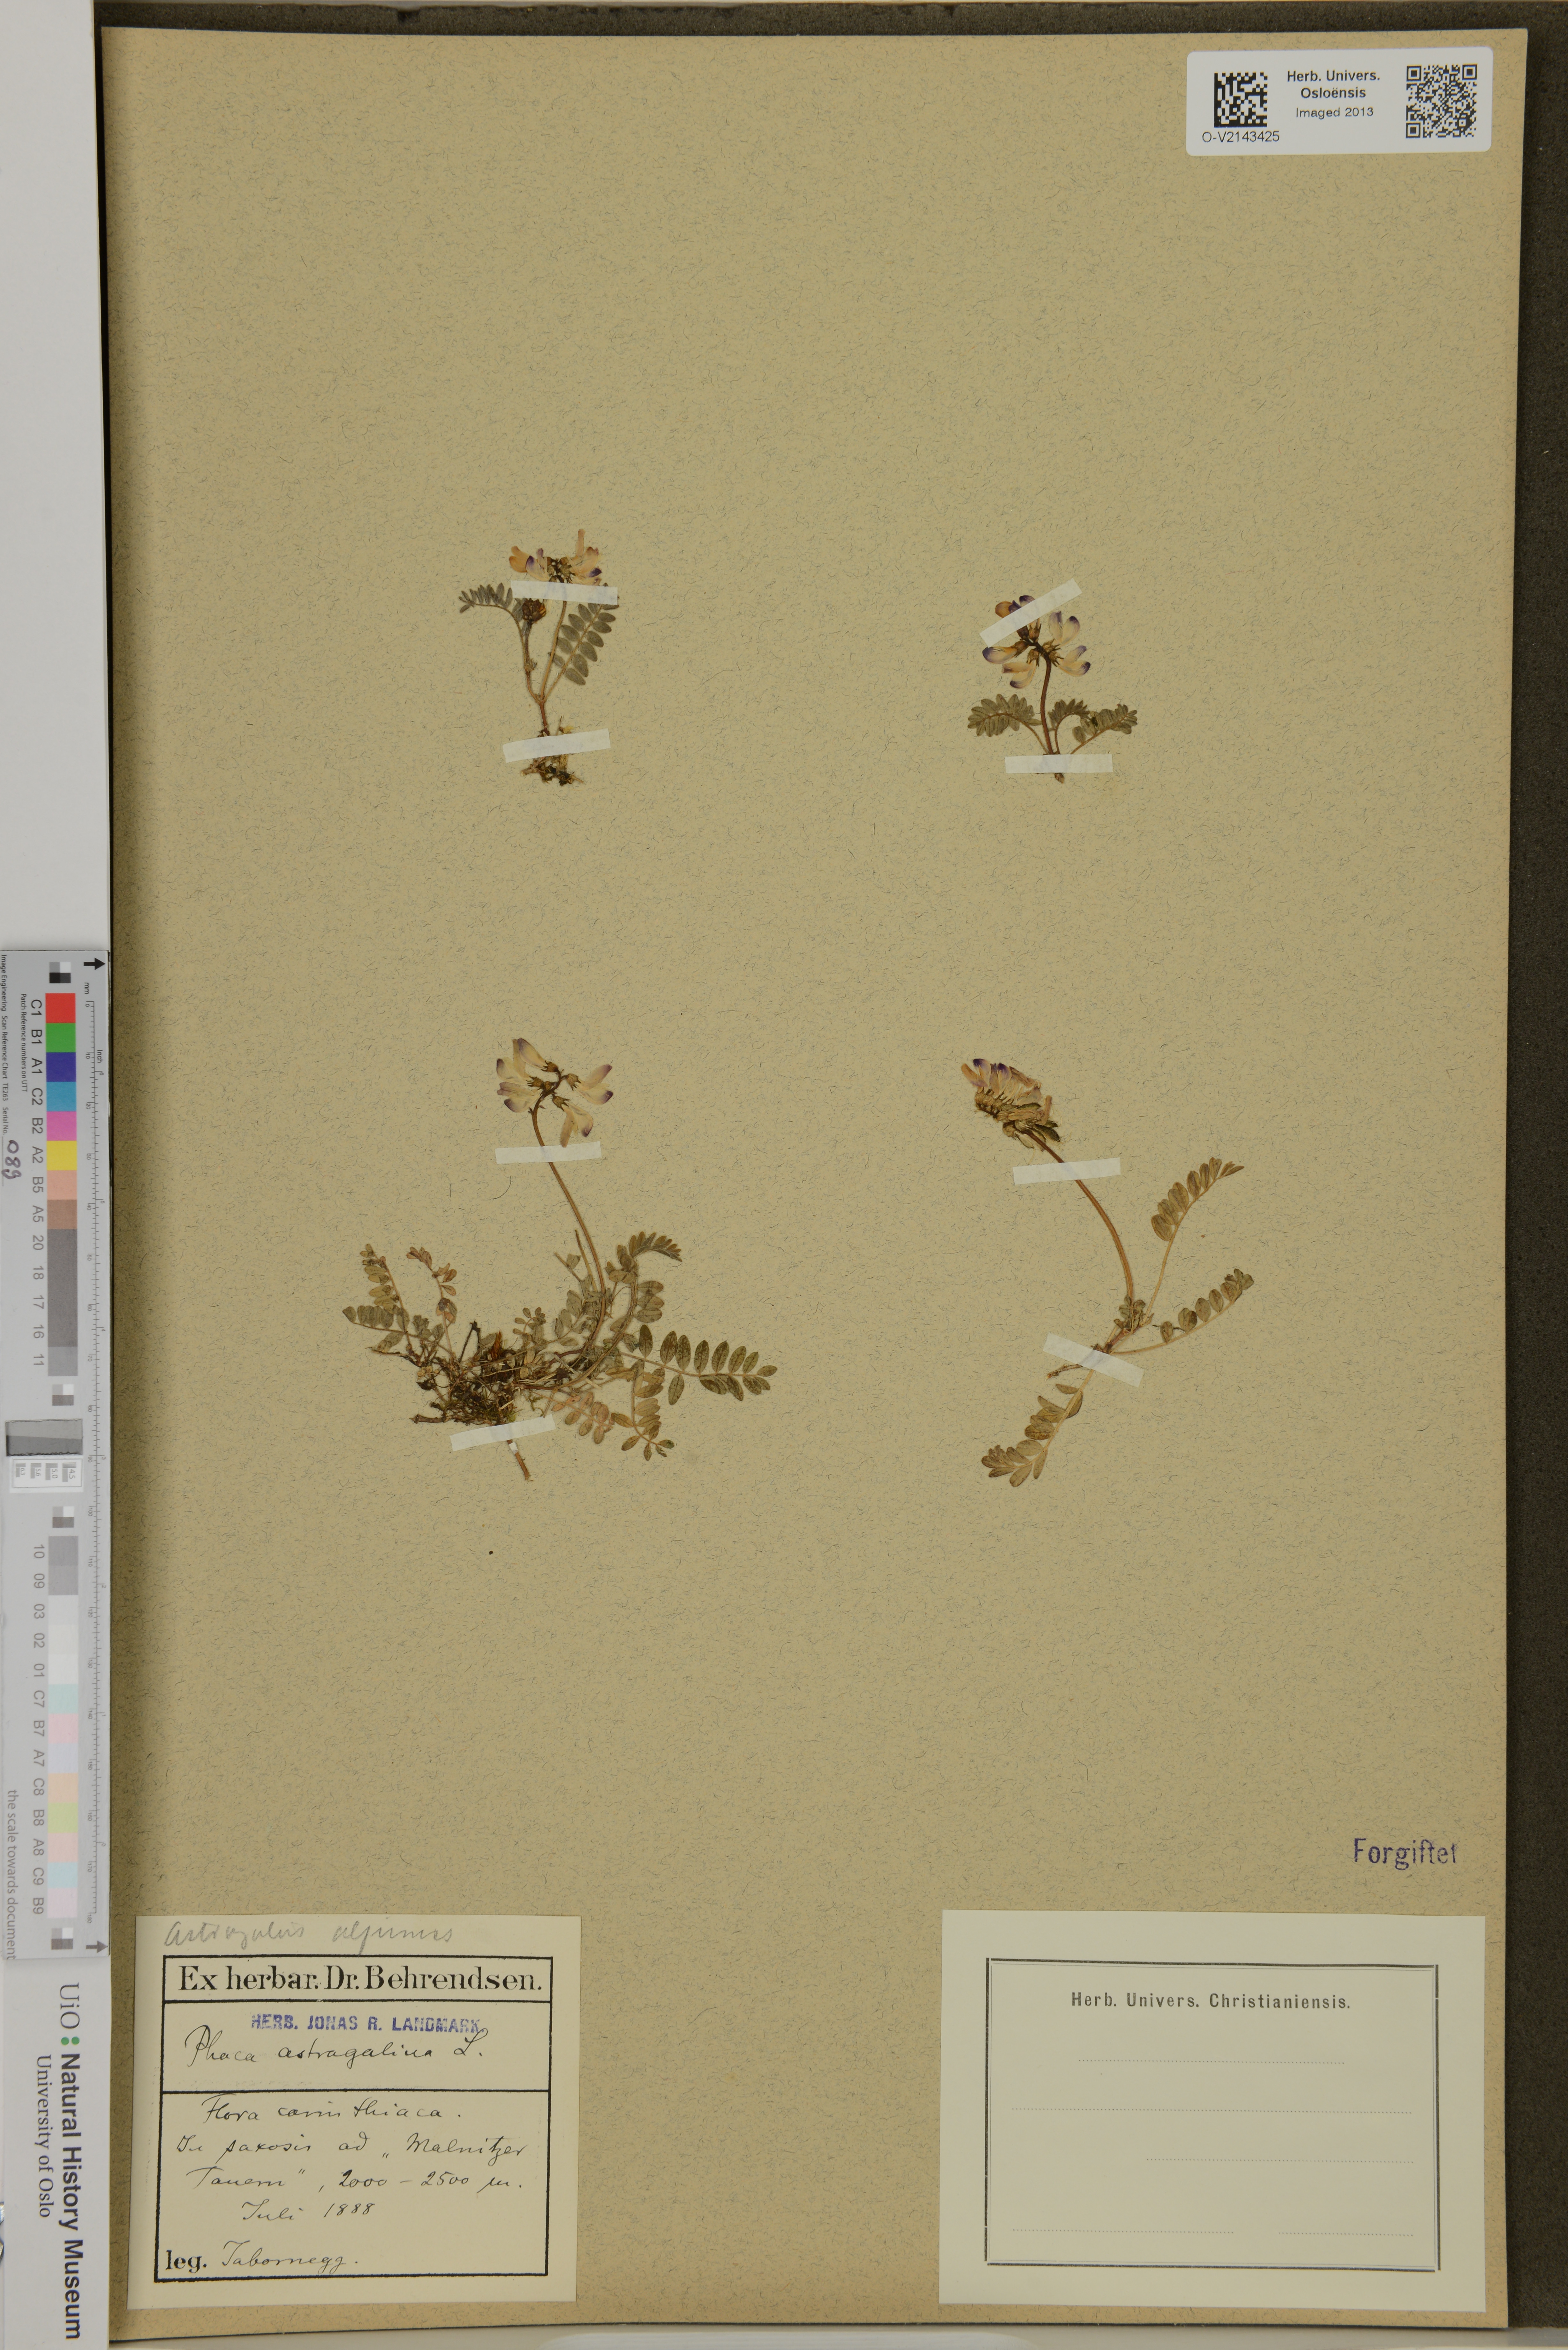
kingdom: Plantae
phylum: Tracheophyta
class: Magnoliopsida
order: Fabales
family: Fabaceae
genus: Astragalus
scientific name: Astragalus alpinus
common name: Alpine milk-vetch
